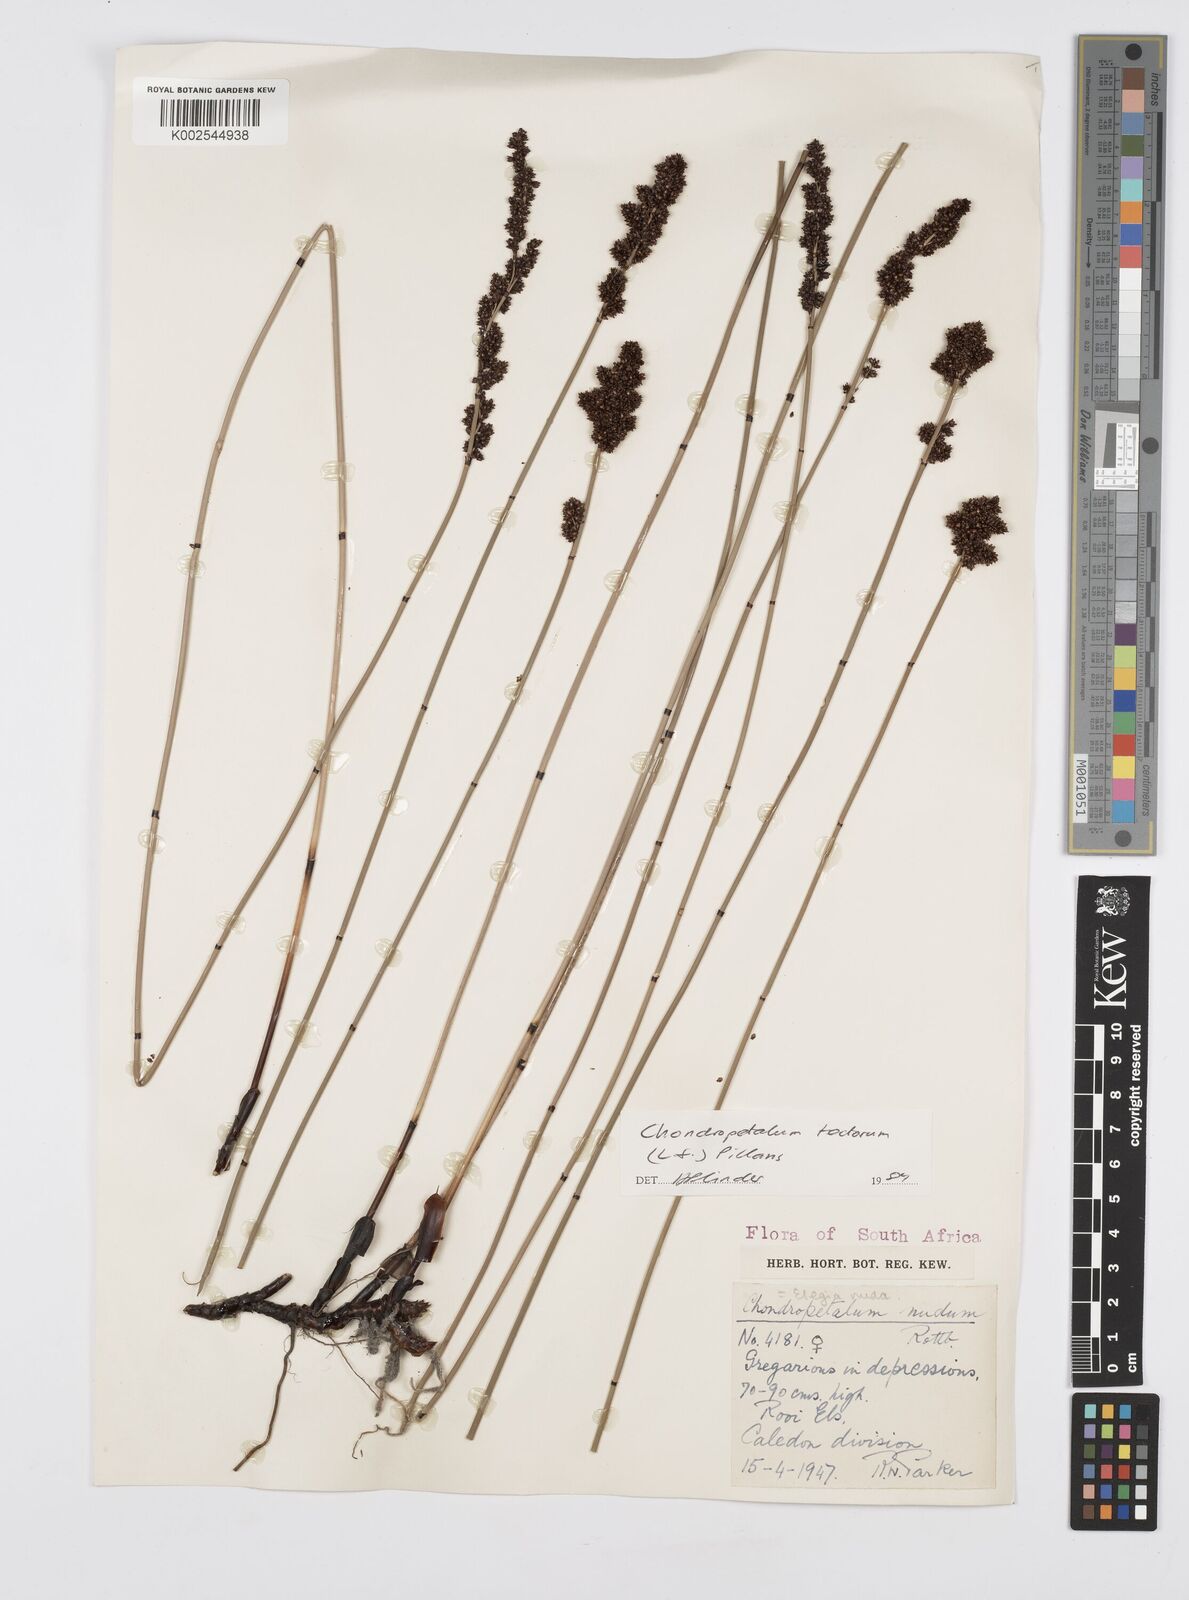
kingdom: Plantae
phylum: Tracheophyta
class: Liliopsida
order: Poales
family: Restionaceae
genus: Elegia
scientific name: Elegia tectorum
